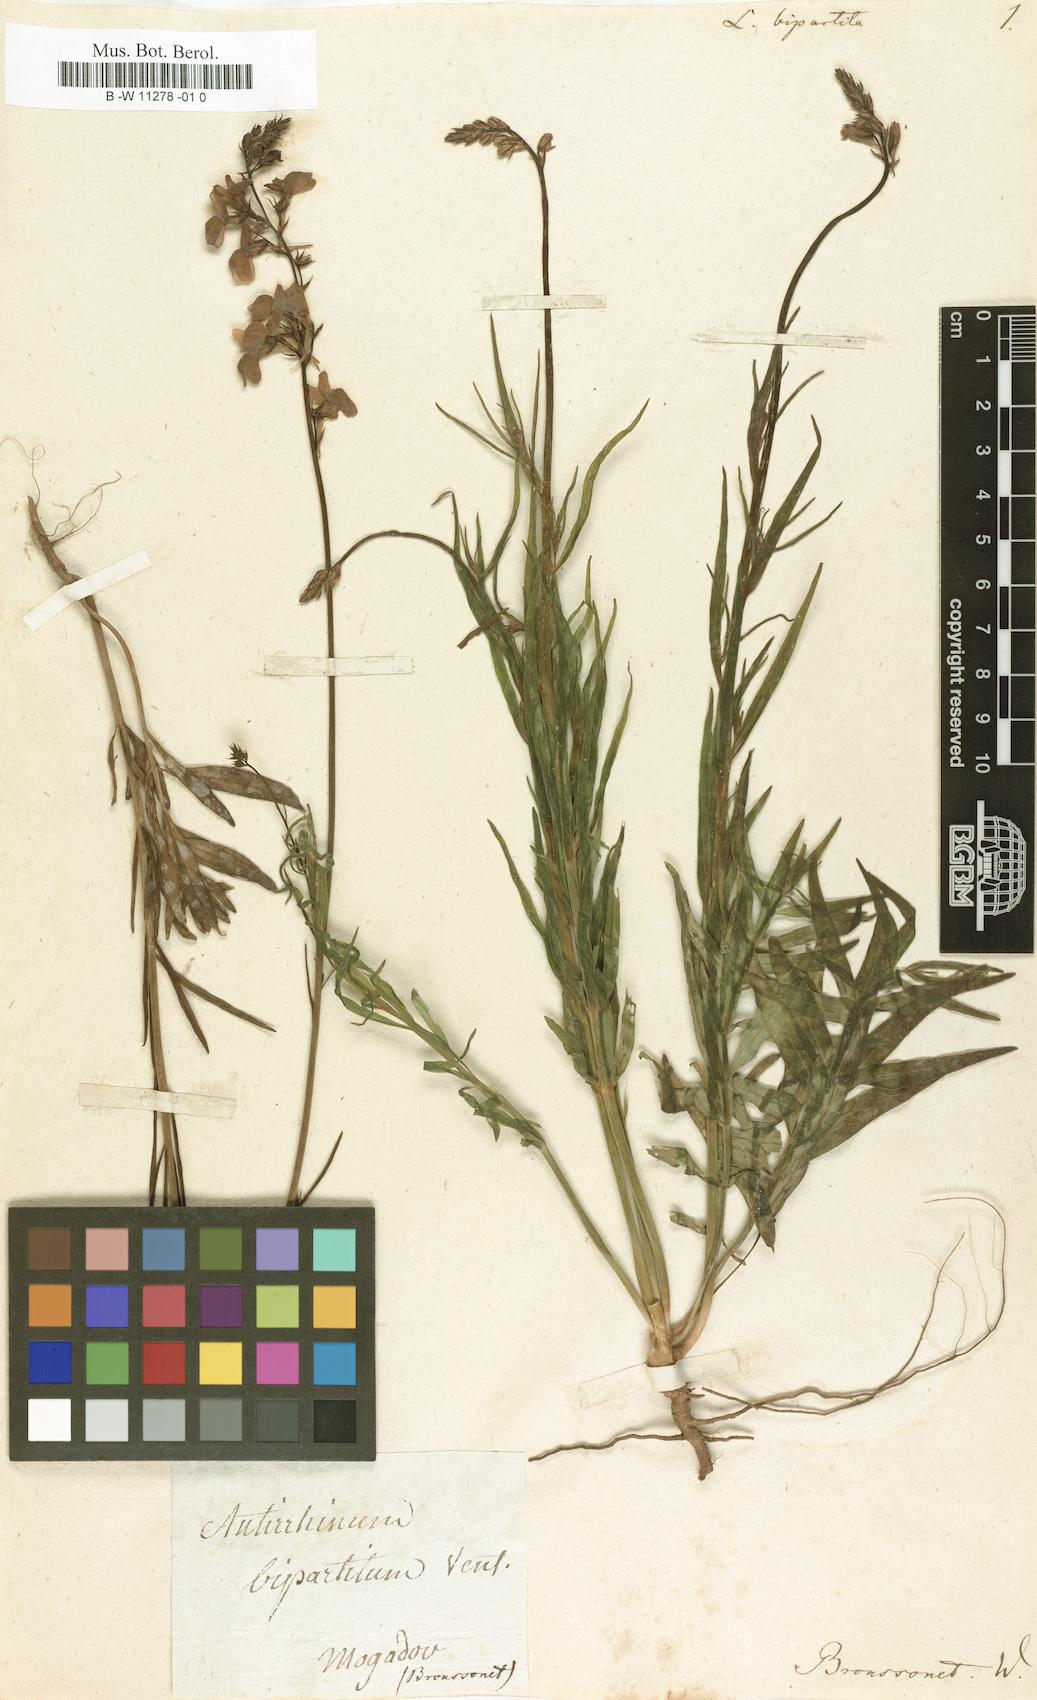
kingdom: Plantae
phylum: Tracheophyta
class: Magnoliopsida
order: Lamiales
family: Plantaginaceae
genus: Linaria
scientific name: Linaria bipartita
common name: Clovenlip toadflax
